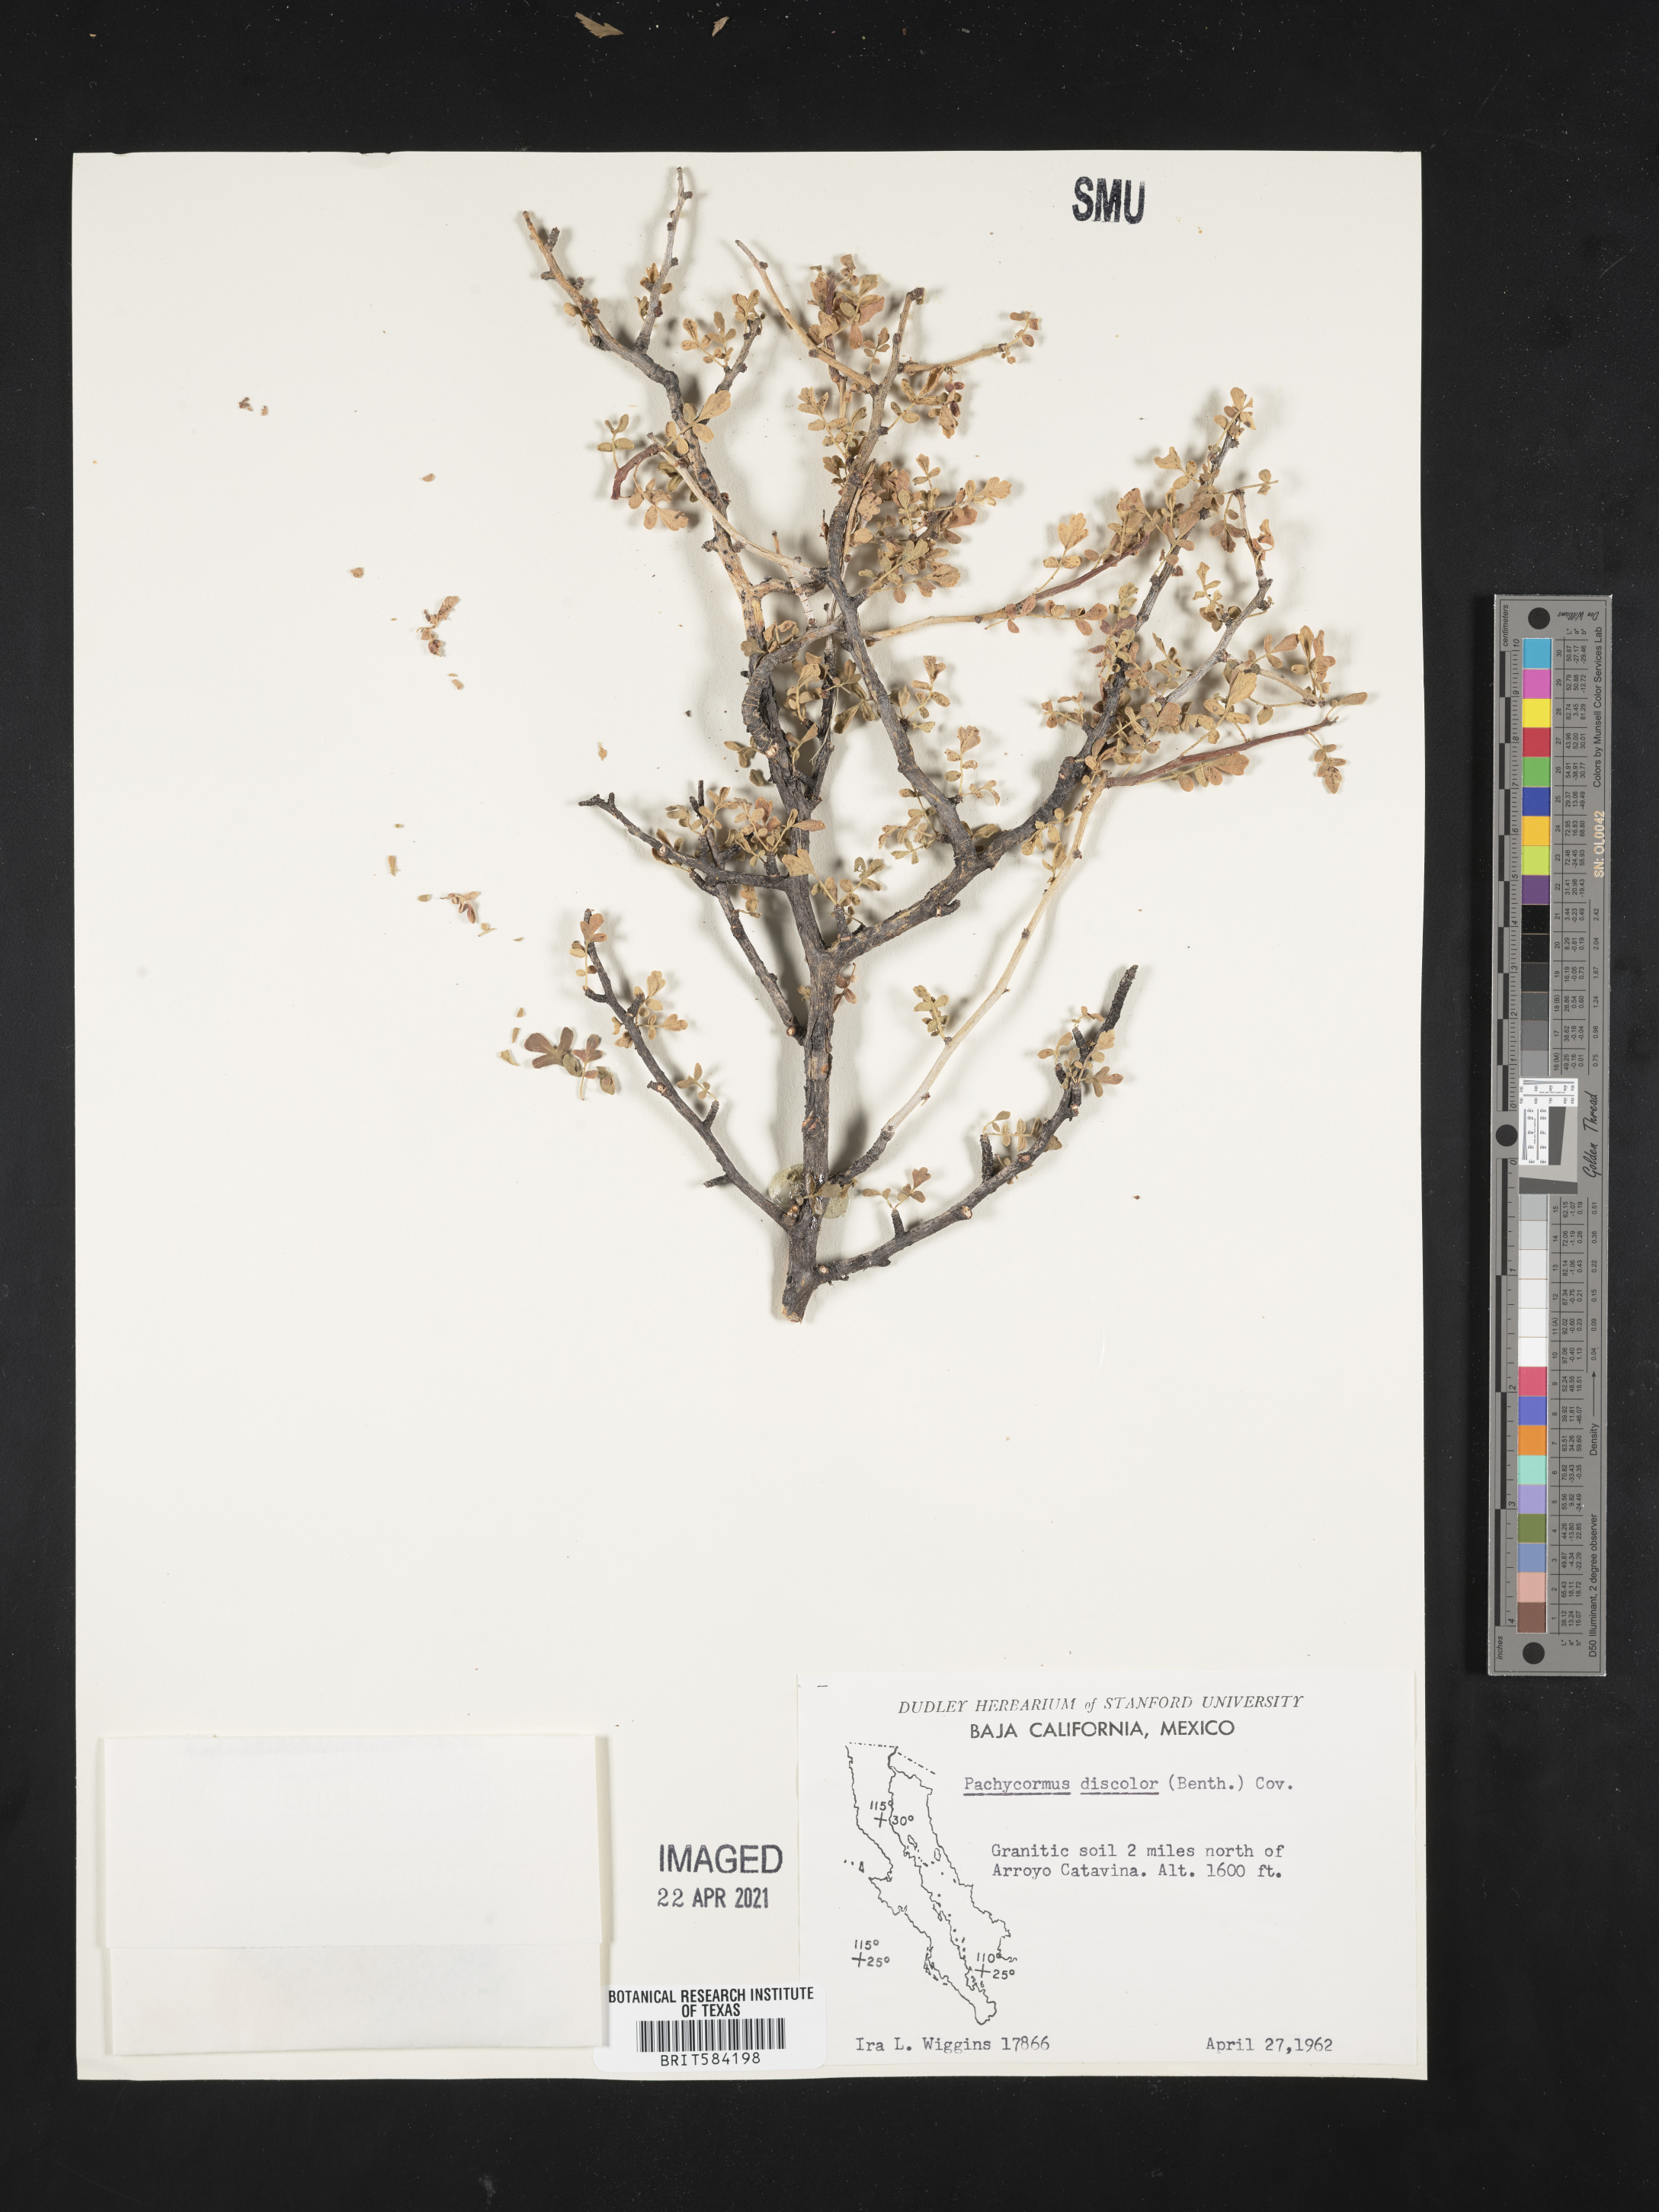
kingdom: Plantae
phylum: Tracheophyta
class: Magnoliopsida
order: Sapindales
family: Anacardiaceae
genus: Pachycormus
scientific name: Pachycormus discolor
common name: Succulent elephant trees
